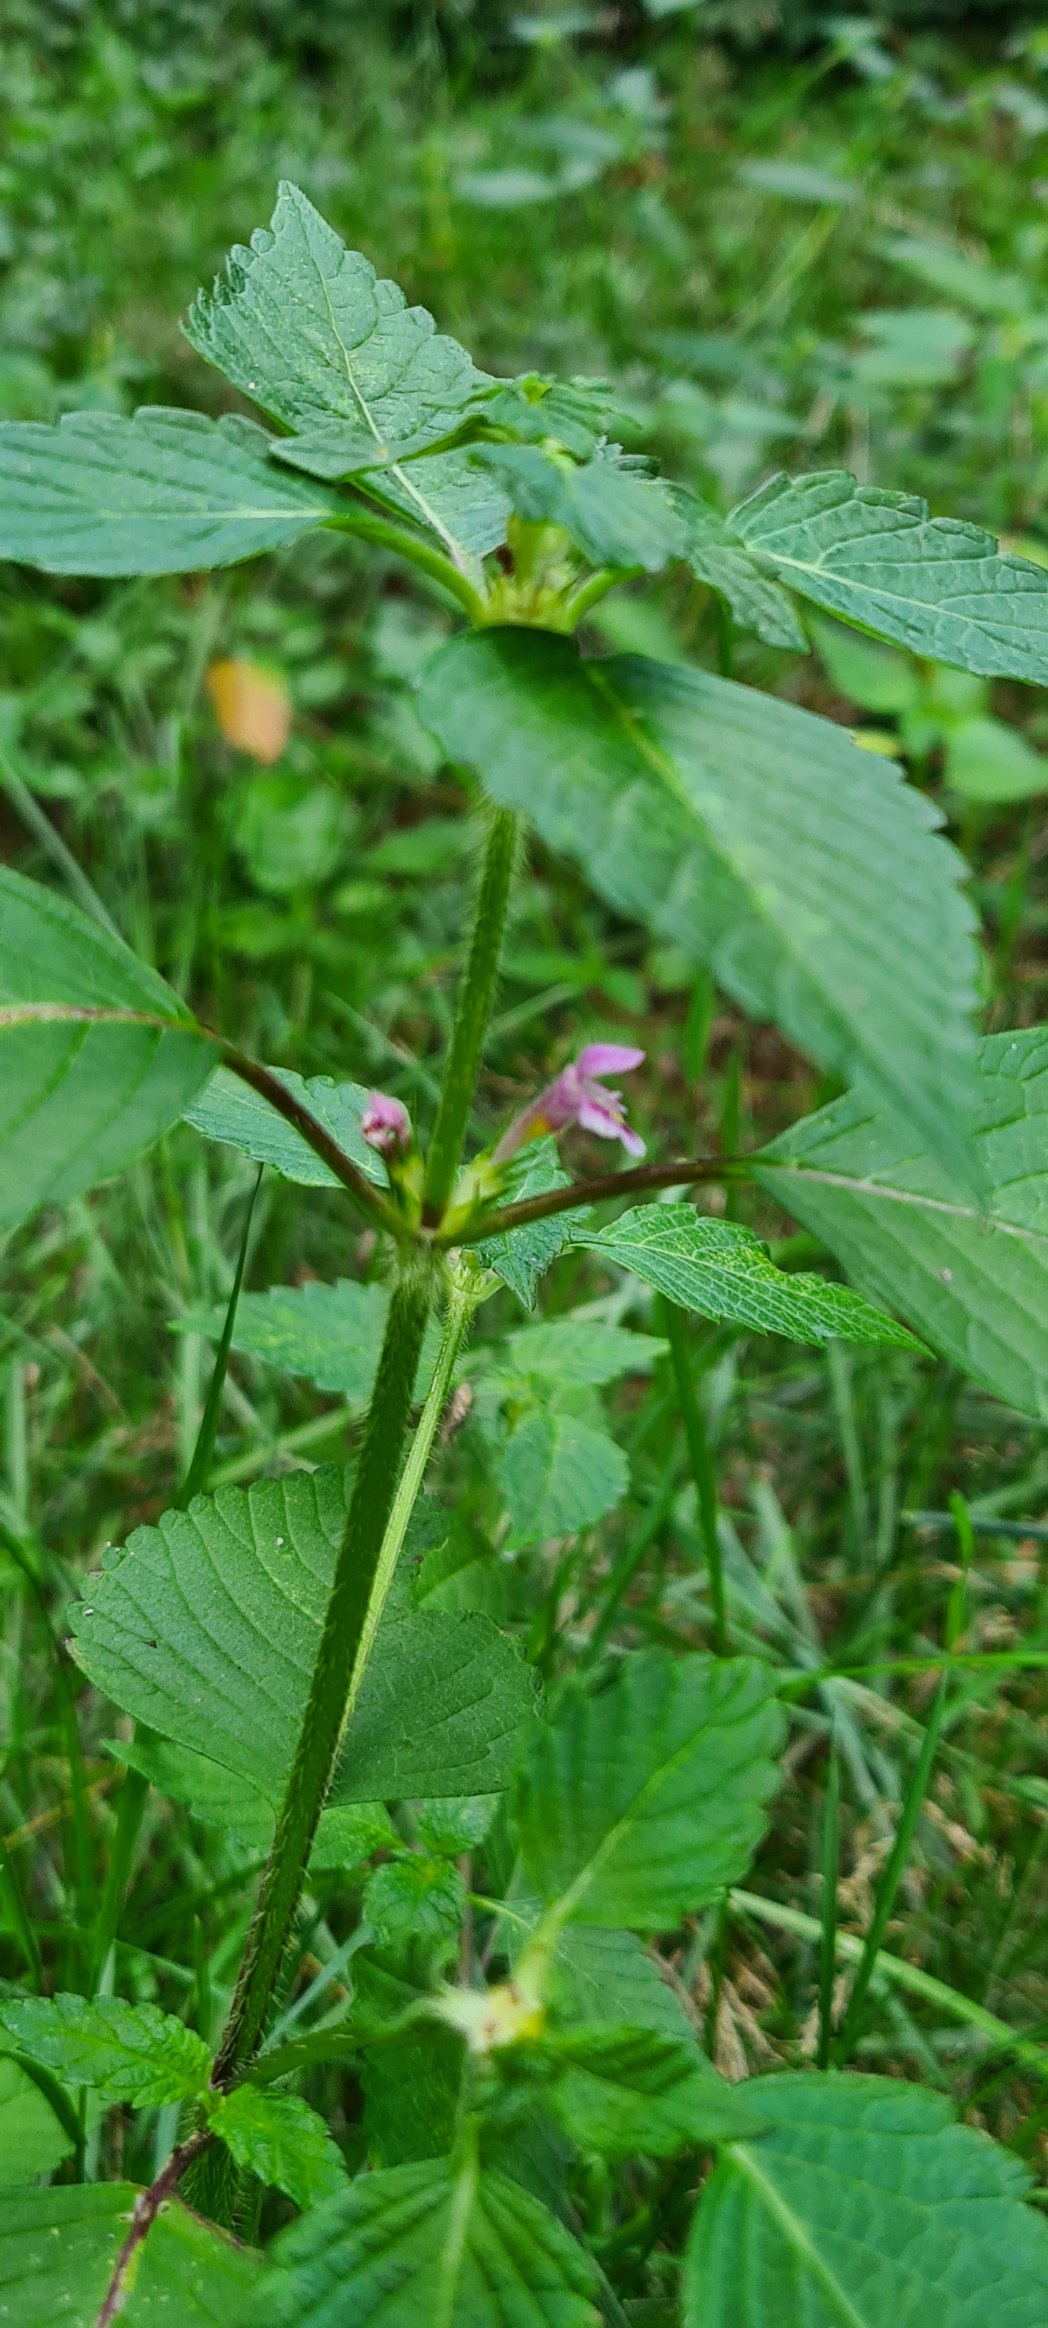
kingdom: Plantae
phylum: Tracheophyta
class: Magnoliopsida
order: Lamiales
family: Lamiaceae
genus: Galeopsis
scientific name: Galeopsis tetrahit
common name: Almindelig hanekro
